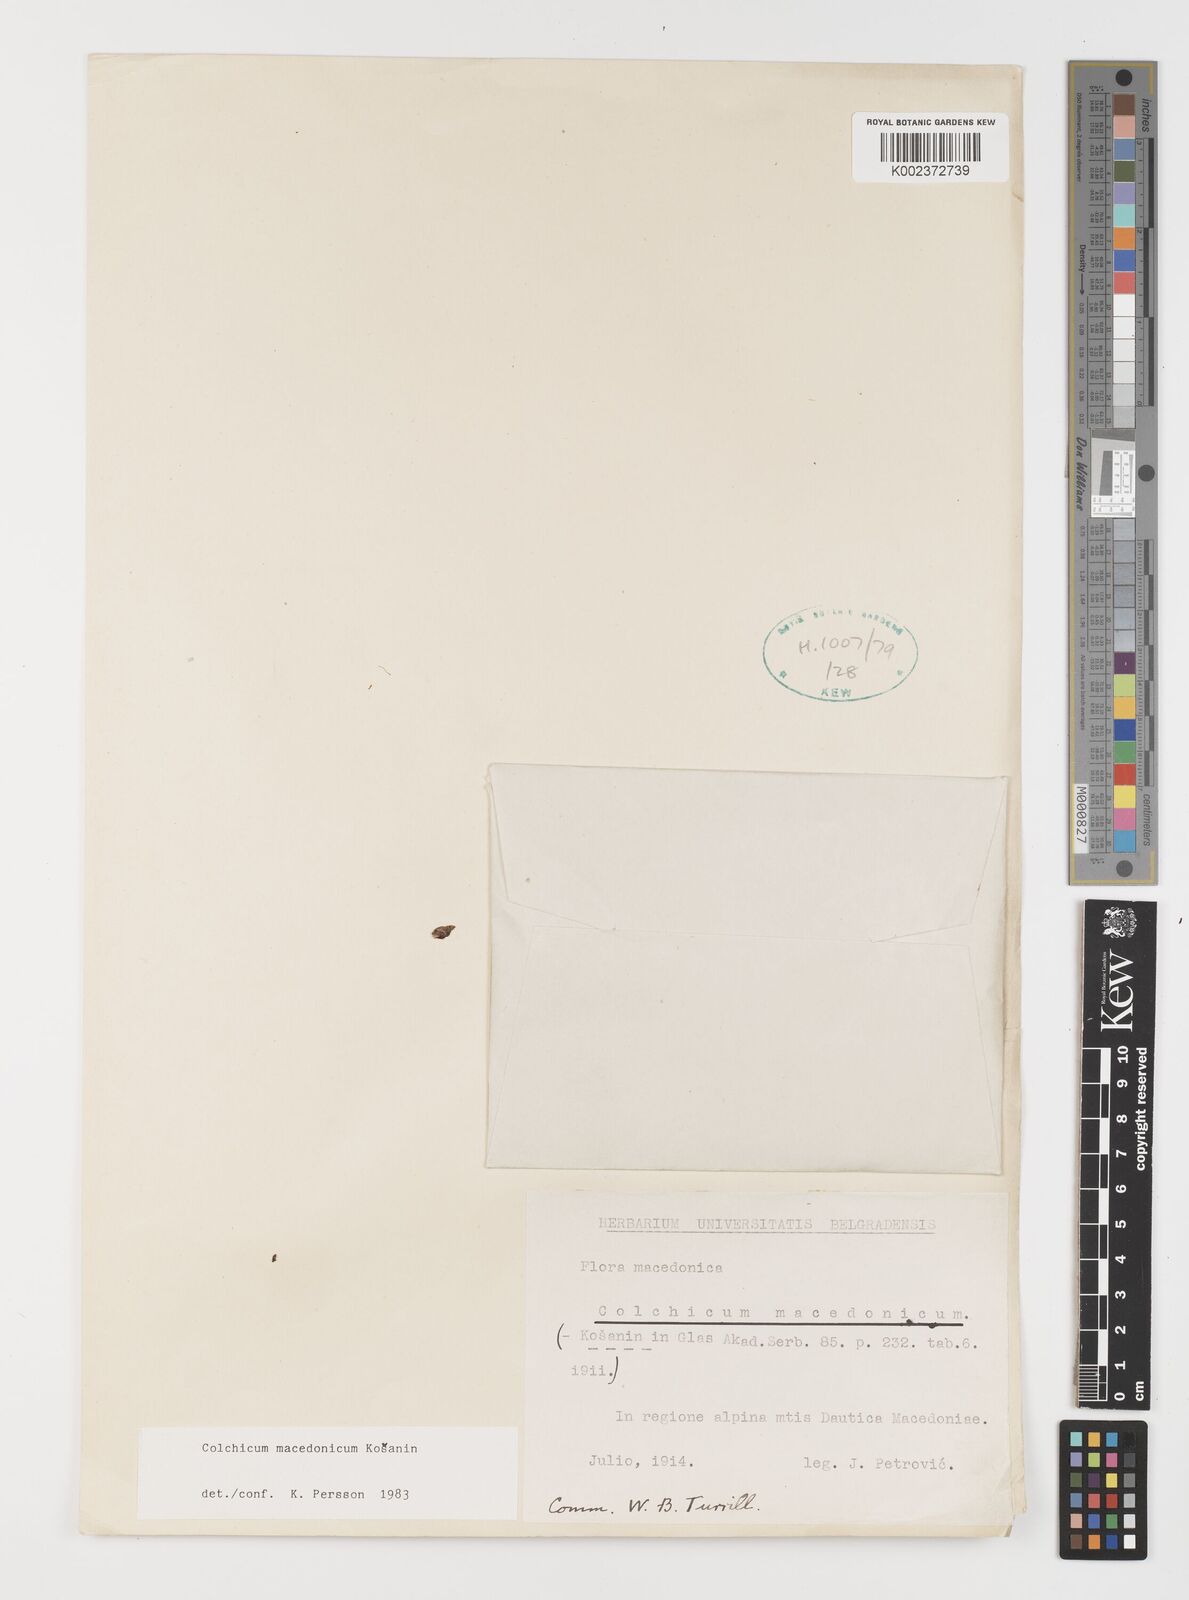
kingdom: Plantae
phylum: Tracheophyta
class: Liliopsida
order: Liliales
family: Colchicaceae
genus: Colchicum
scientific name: Colchicum macedonicum
